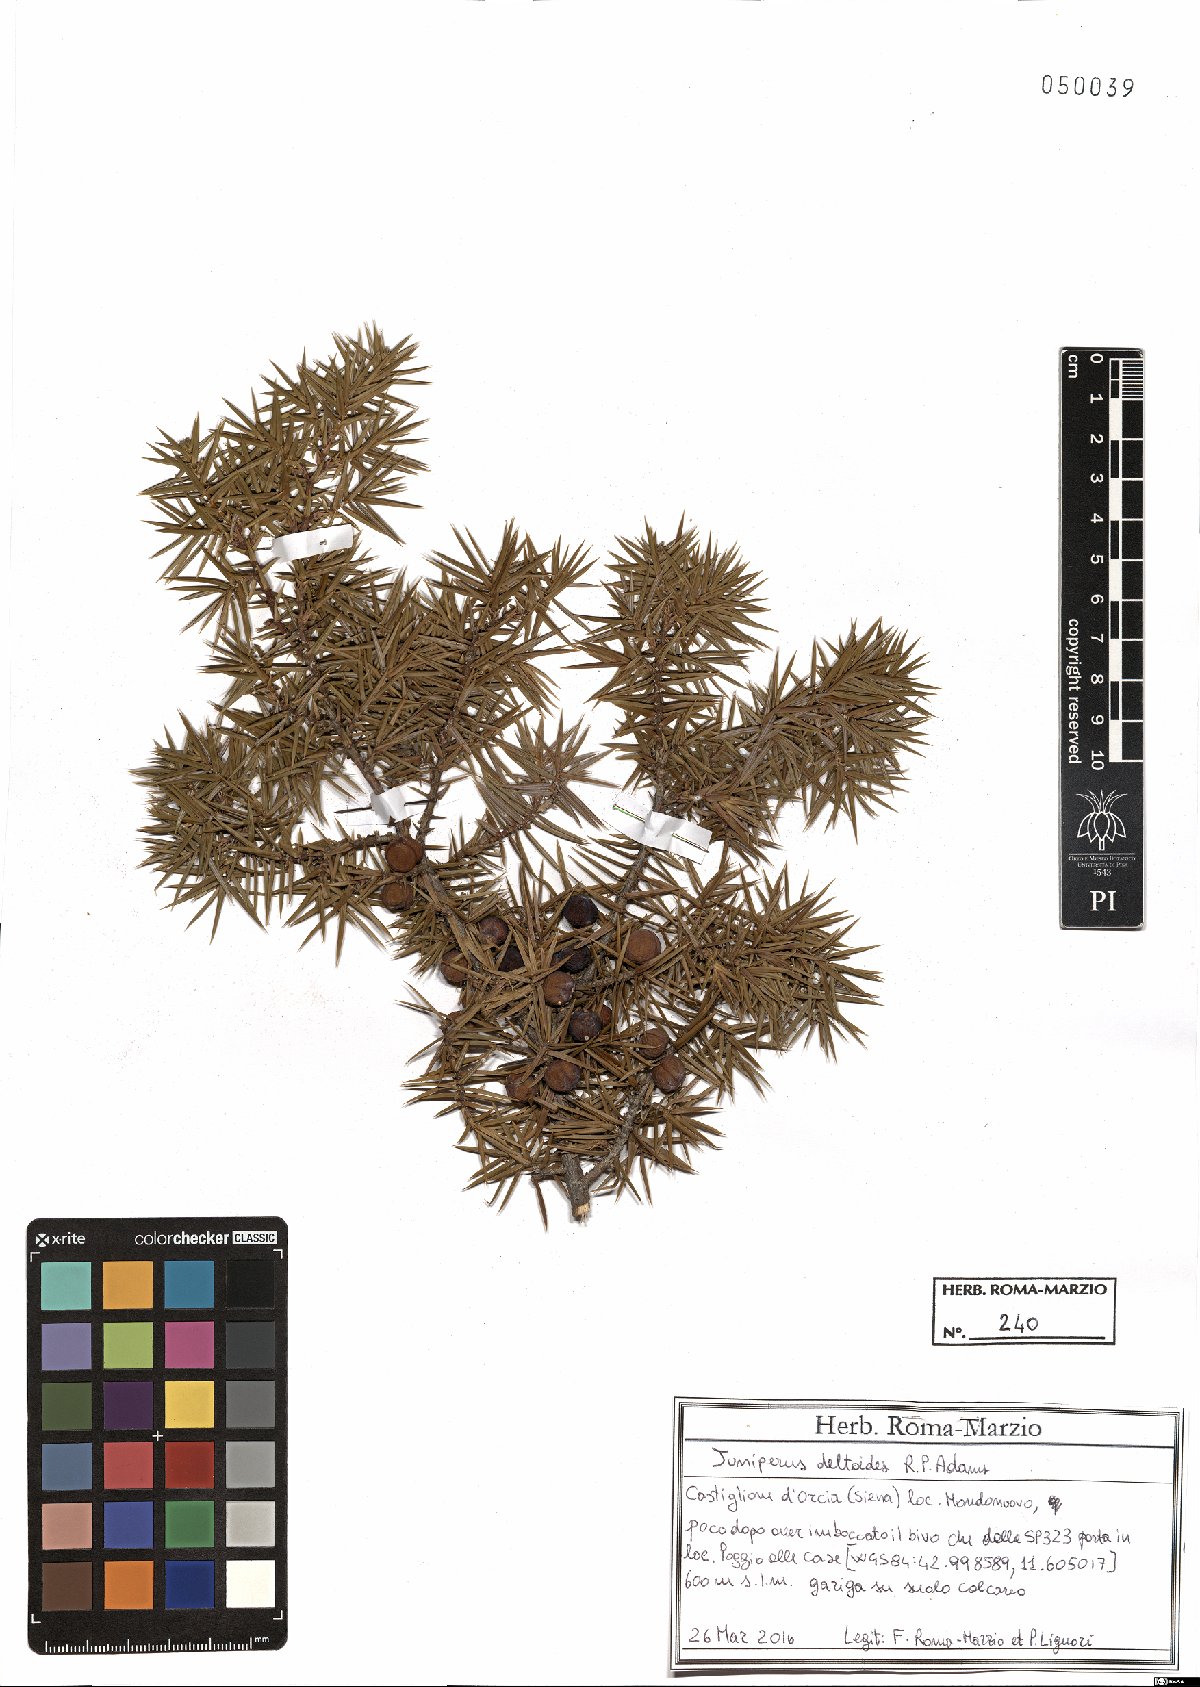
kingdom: Plantae
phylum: Tracheophyta
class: Pinopsida
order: Pinales
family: Cupressaceae
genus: Juniperus
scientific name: Juniperus oxycedrus
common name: Prickly juniper
